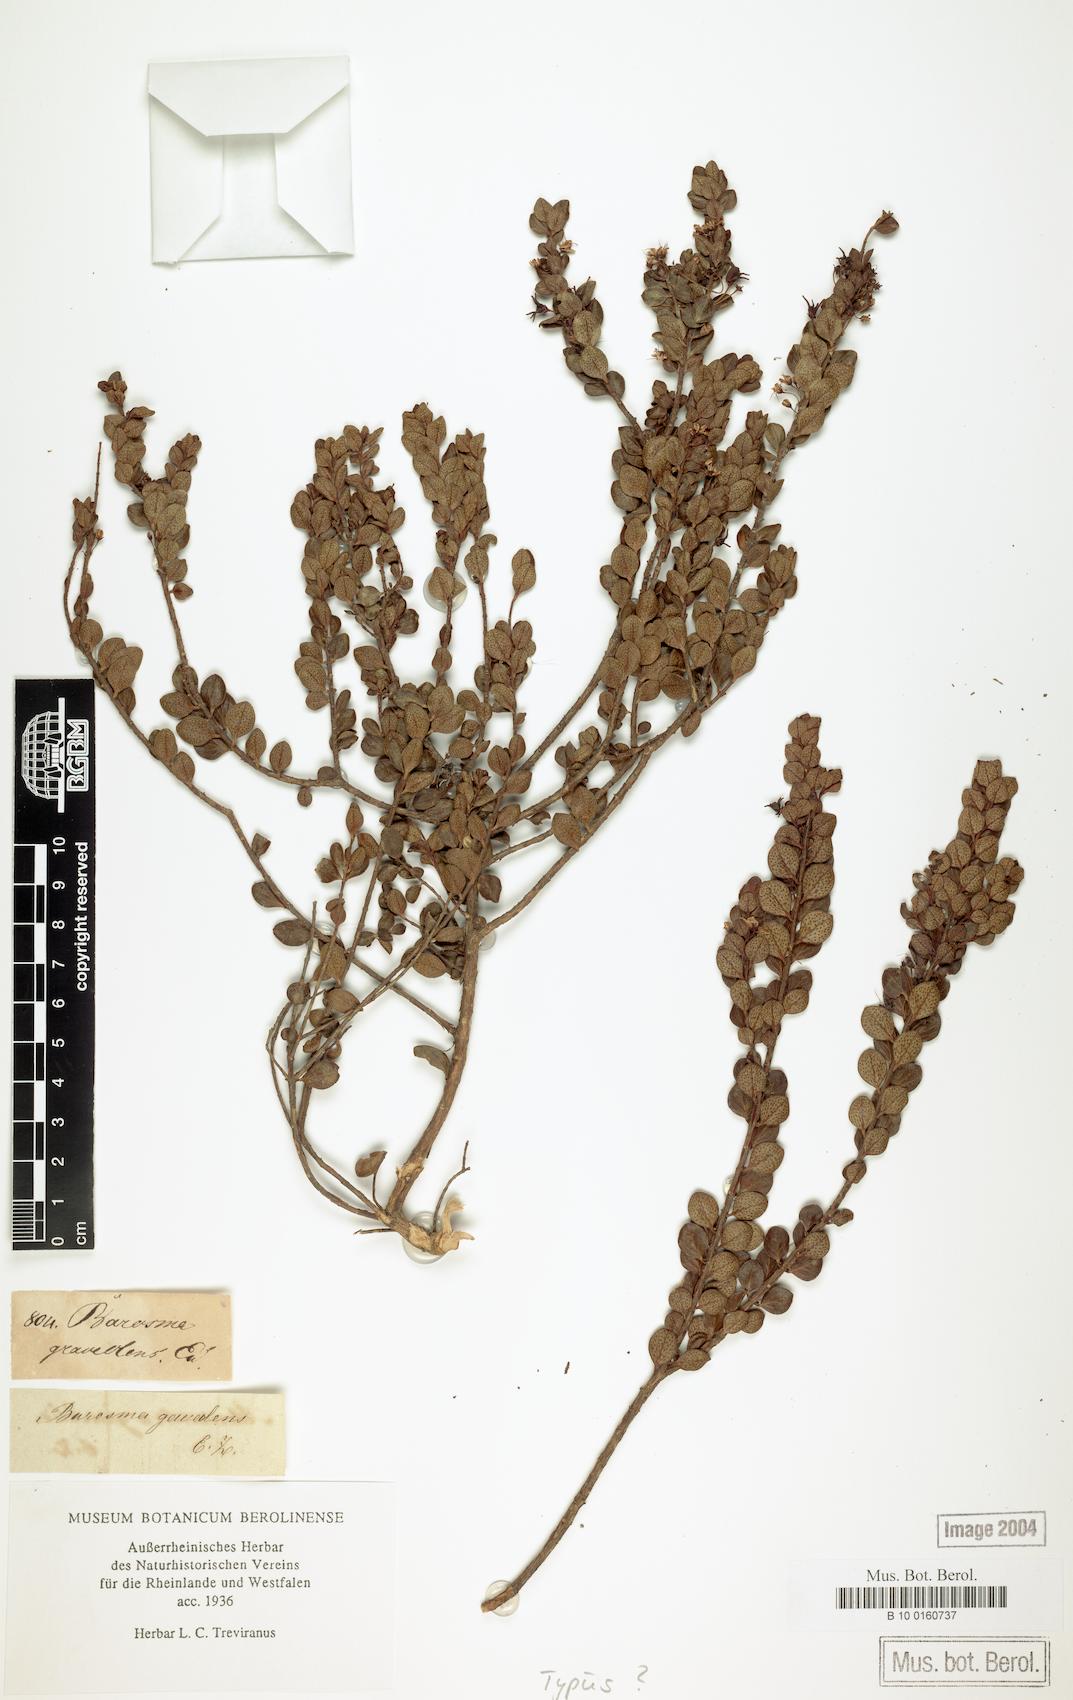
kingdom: Plantae
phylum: Tracheophyta
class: Magnoliopsida
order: Sapindales
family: Rutaceae
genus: Agathosma
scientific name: Agathosma
